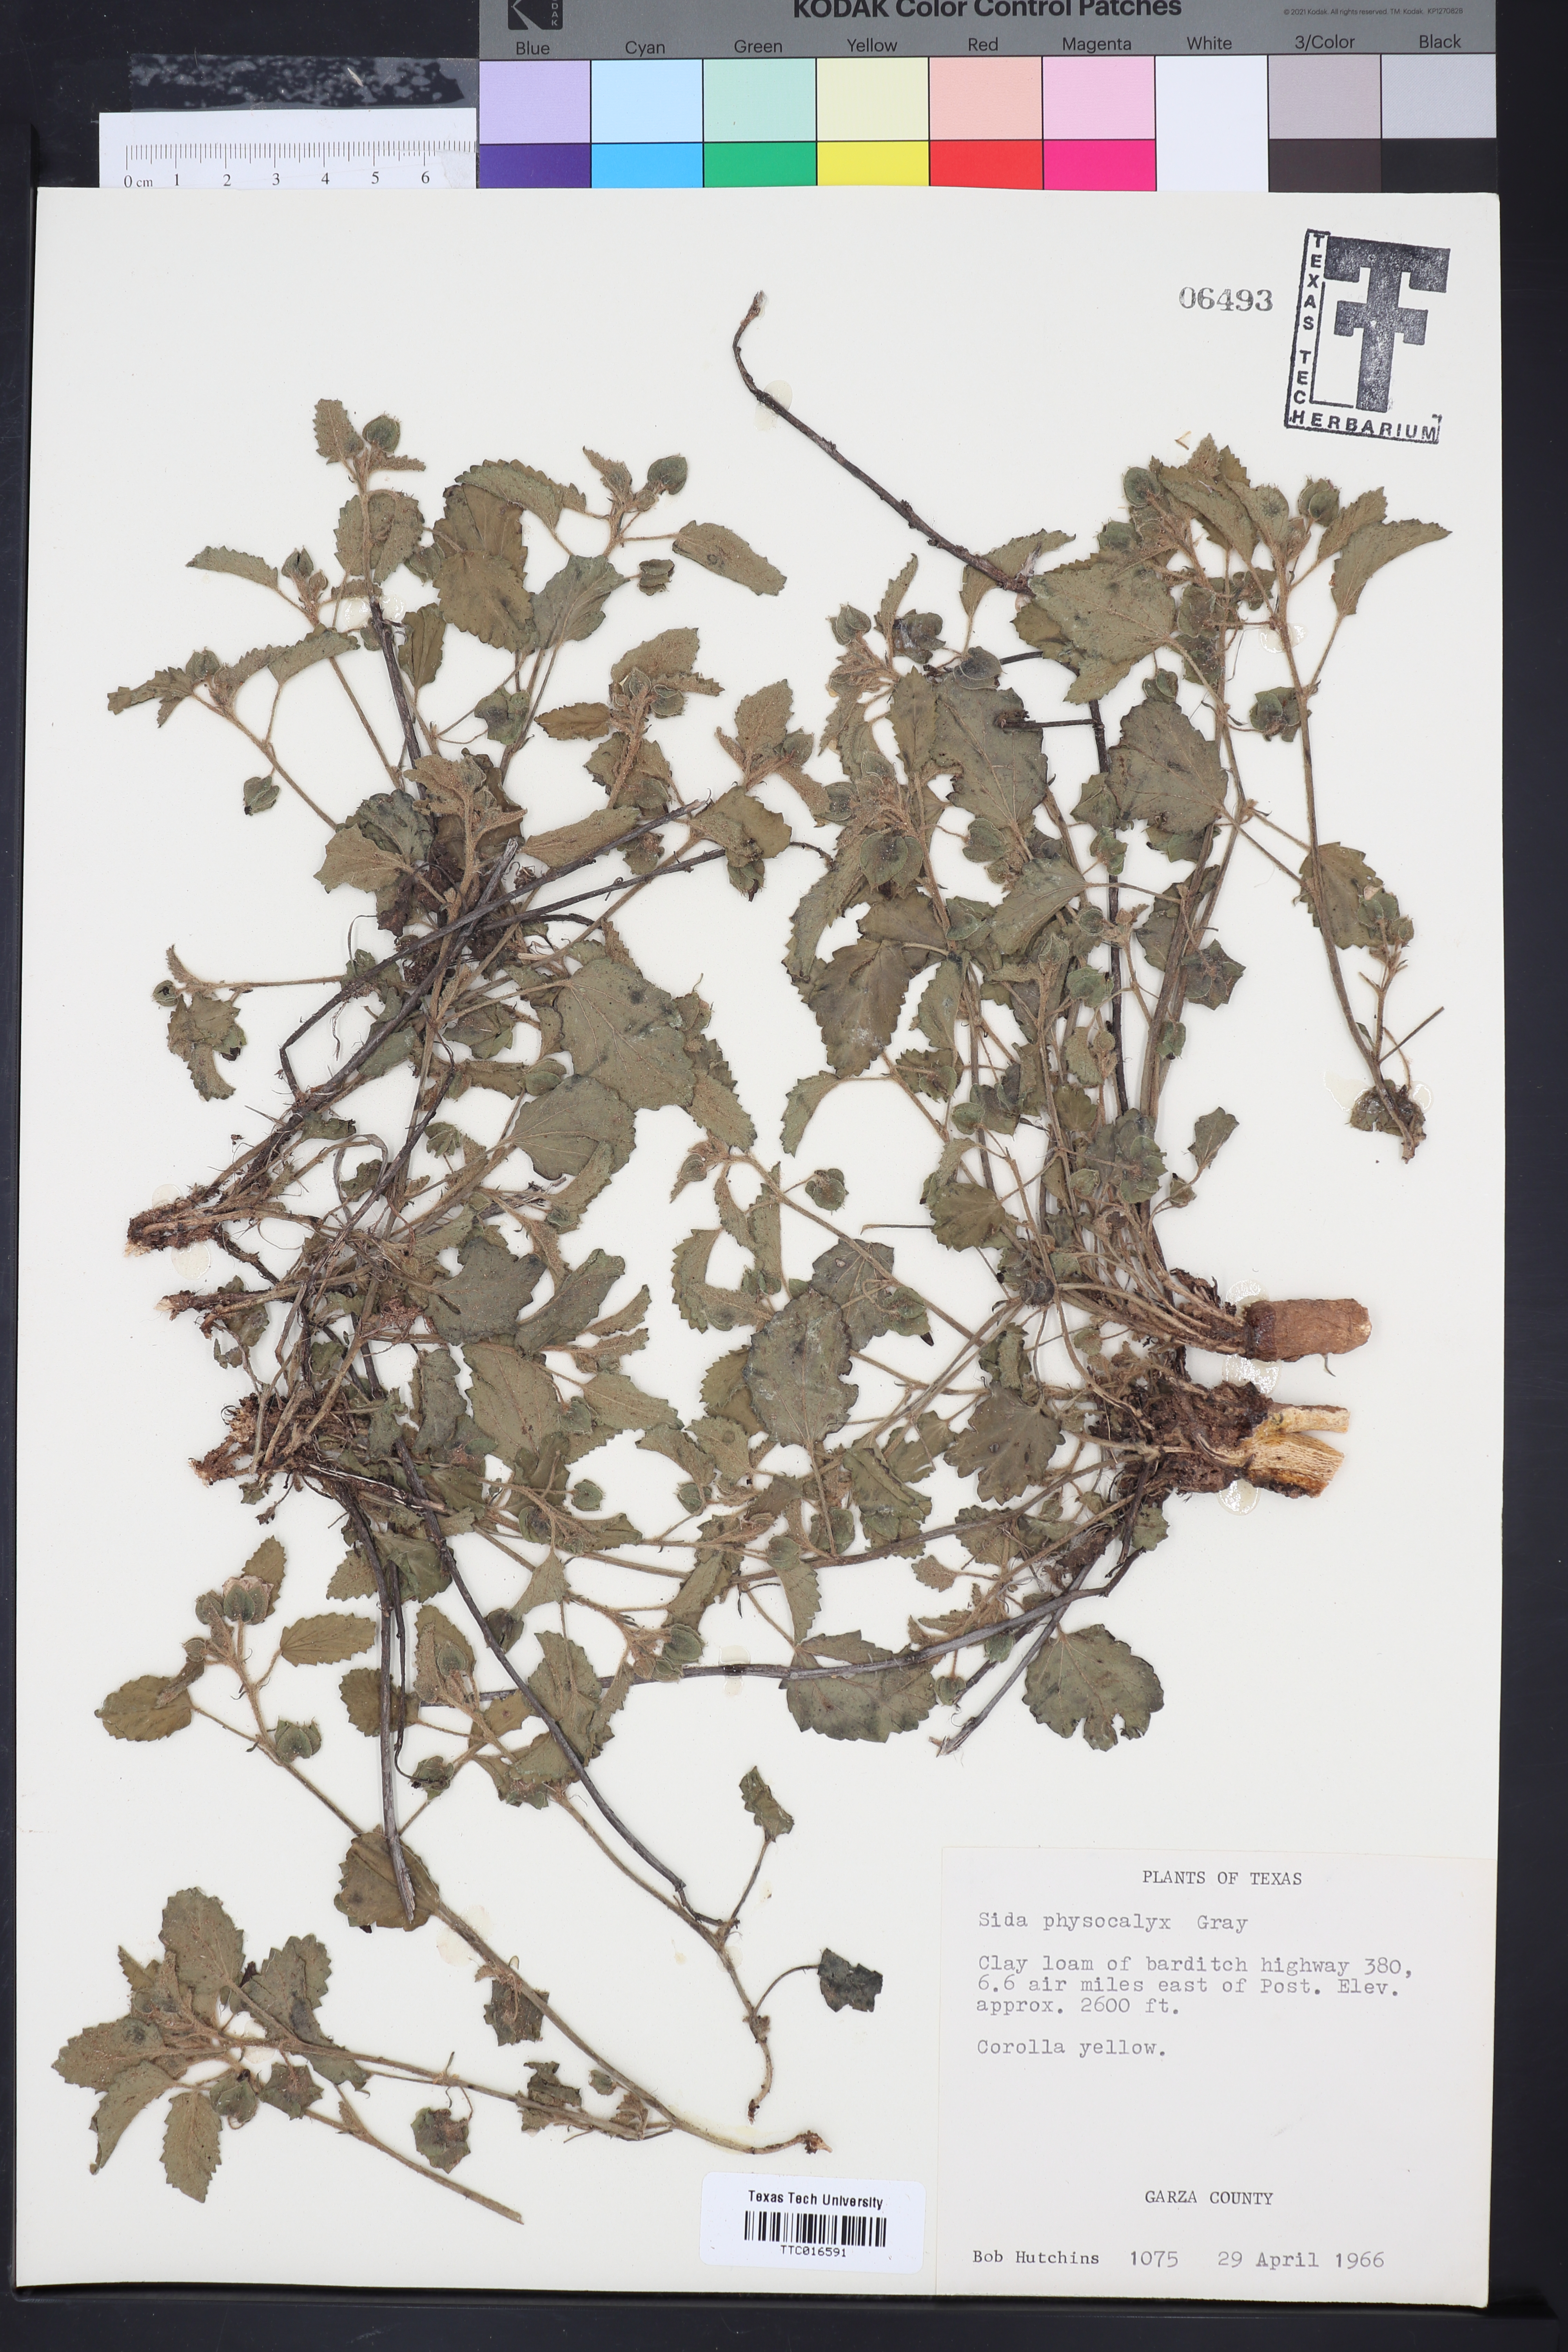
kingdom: Plantae
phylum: Tracheophyta
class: Magnoliopsida
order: Malvales
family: Malvaceae
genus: Rhynchosida
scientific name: Rhynchosida physocalyx
